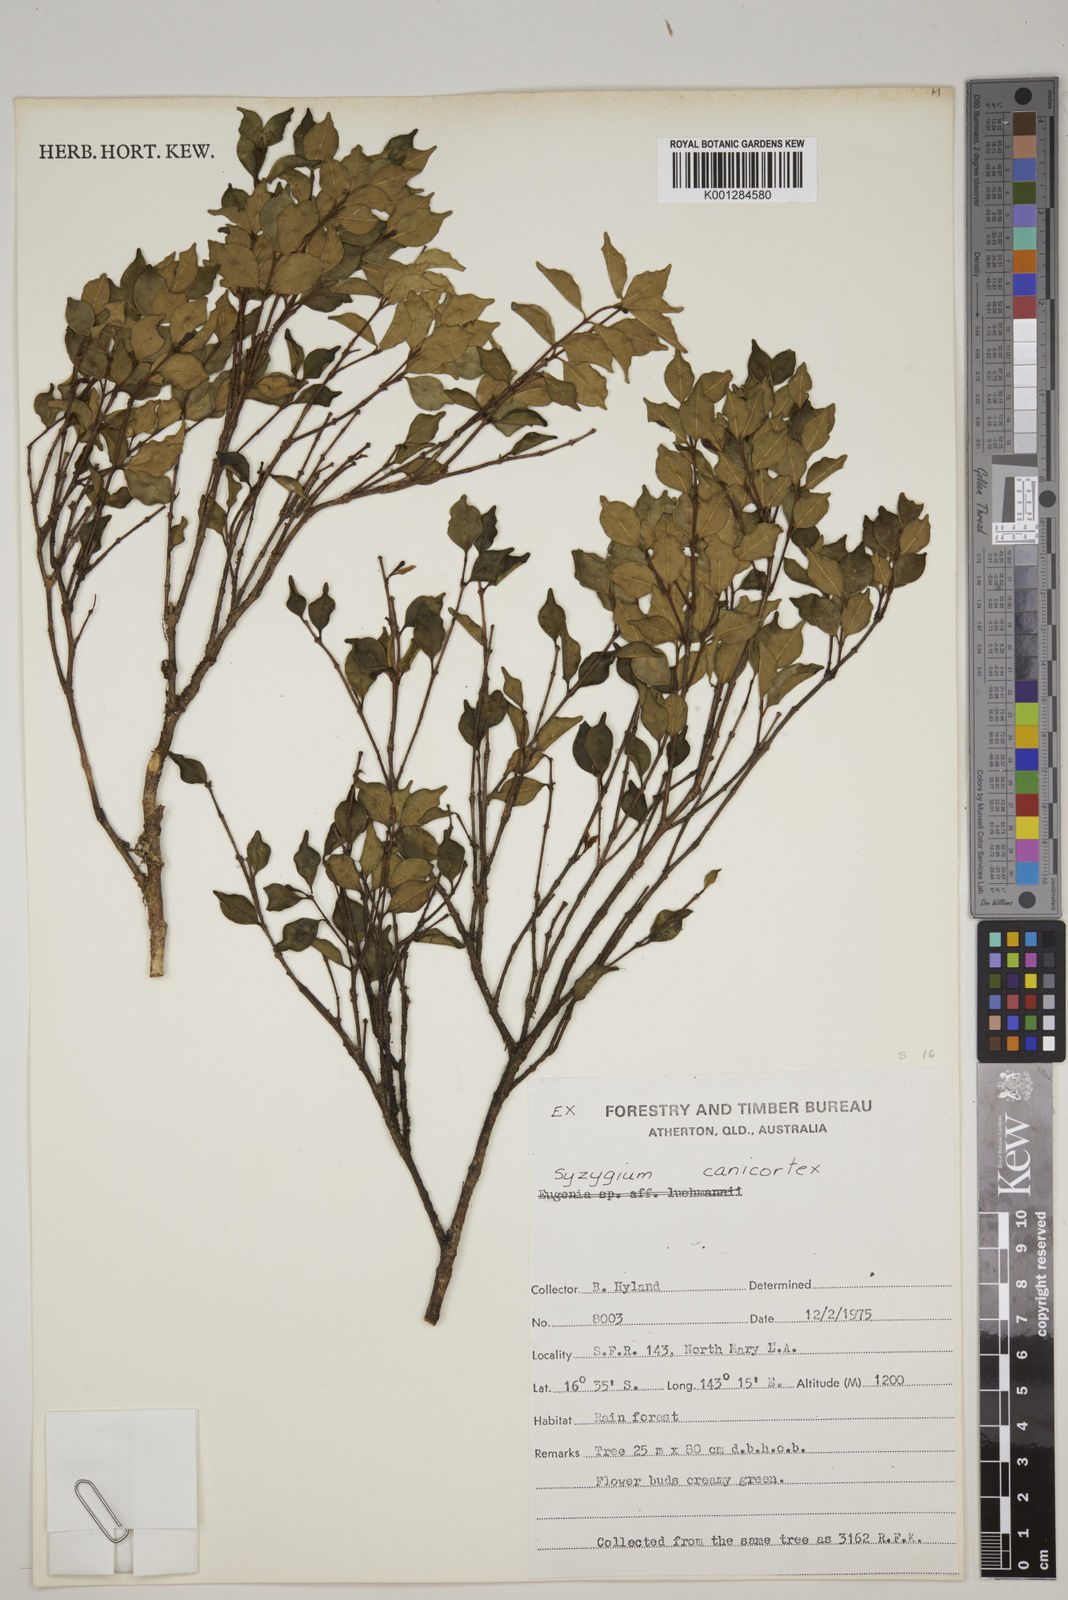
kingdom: Plantae
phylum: Tracheophyta
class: Magnoliopsida
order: Myrtales
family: Myrtaceae
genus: Syzygium
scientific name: Syzygium canicortex
